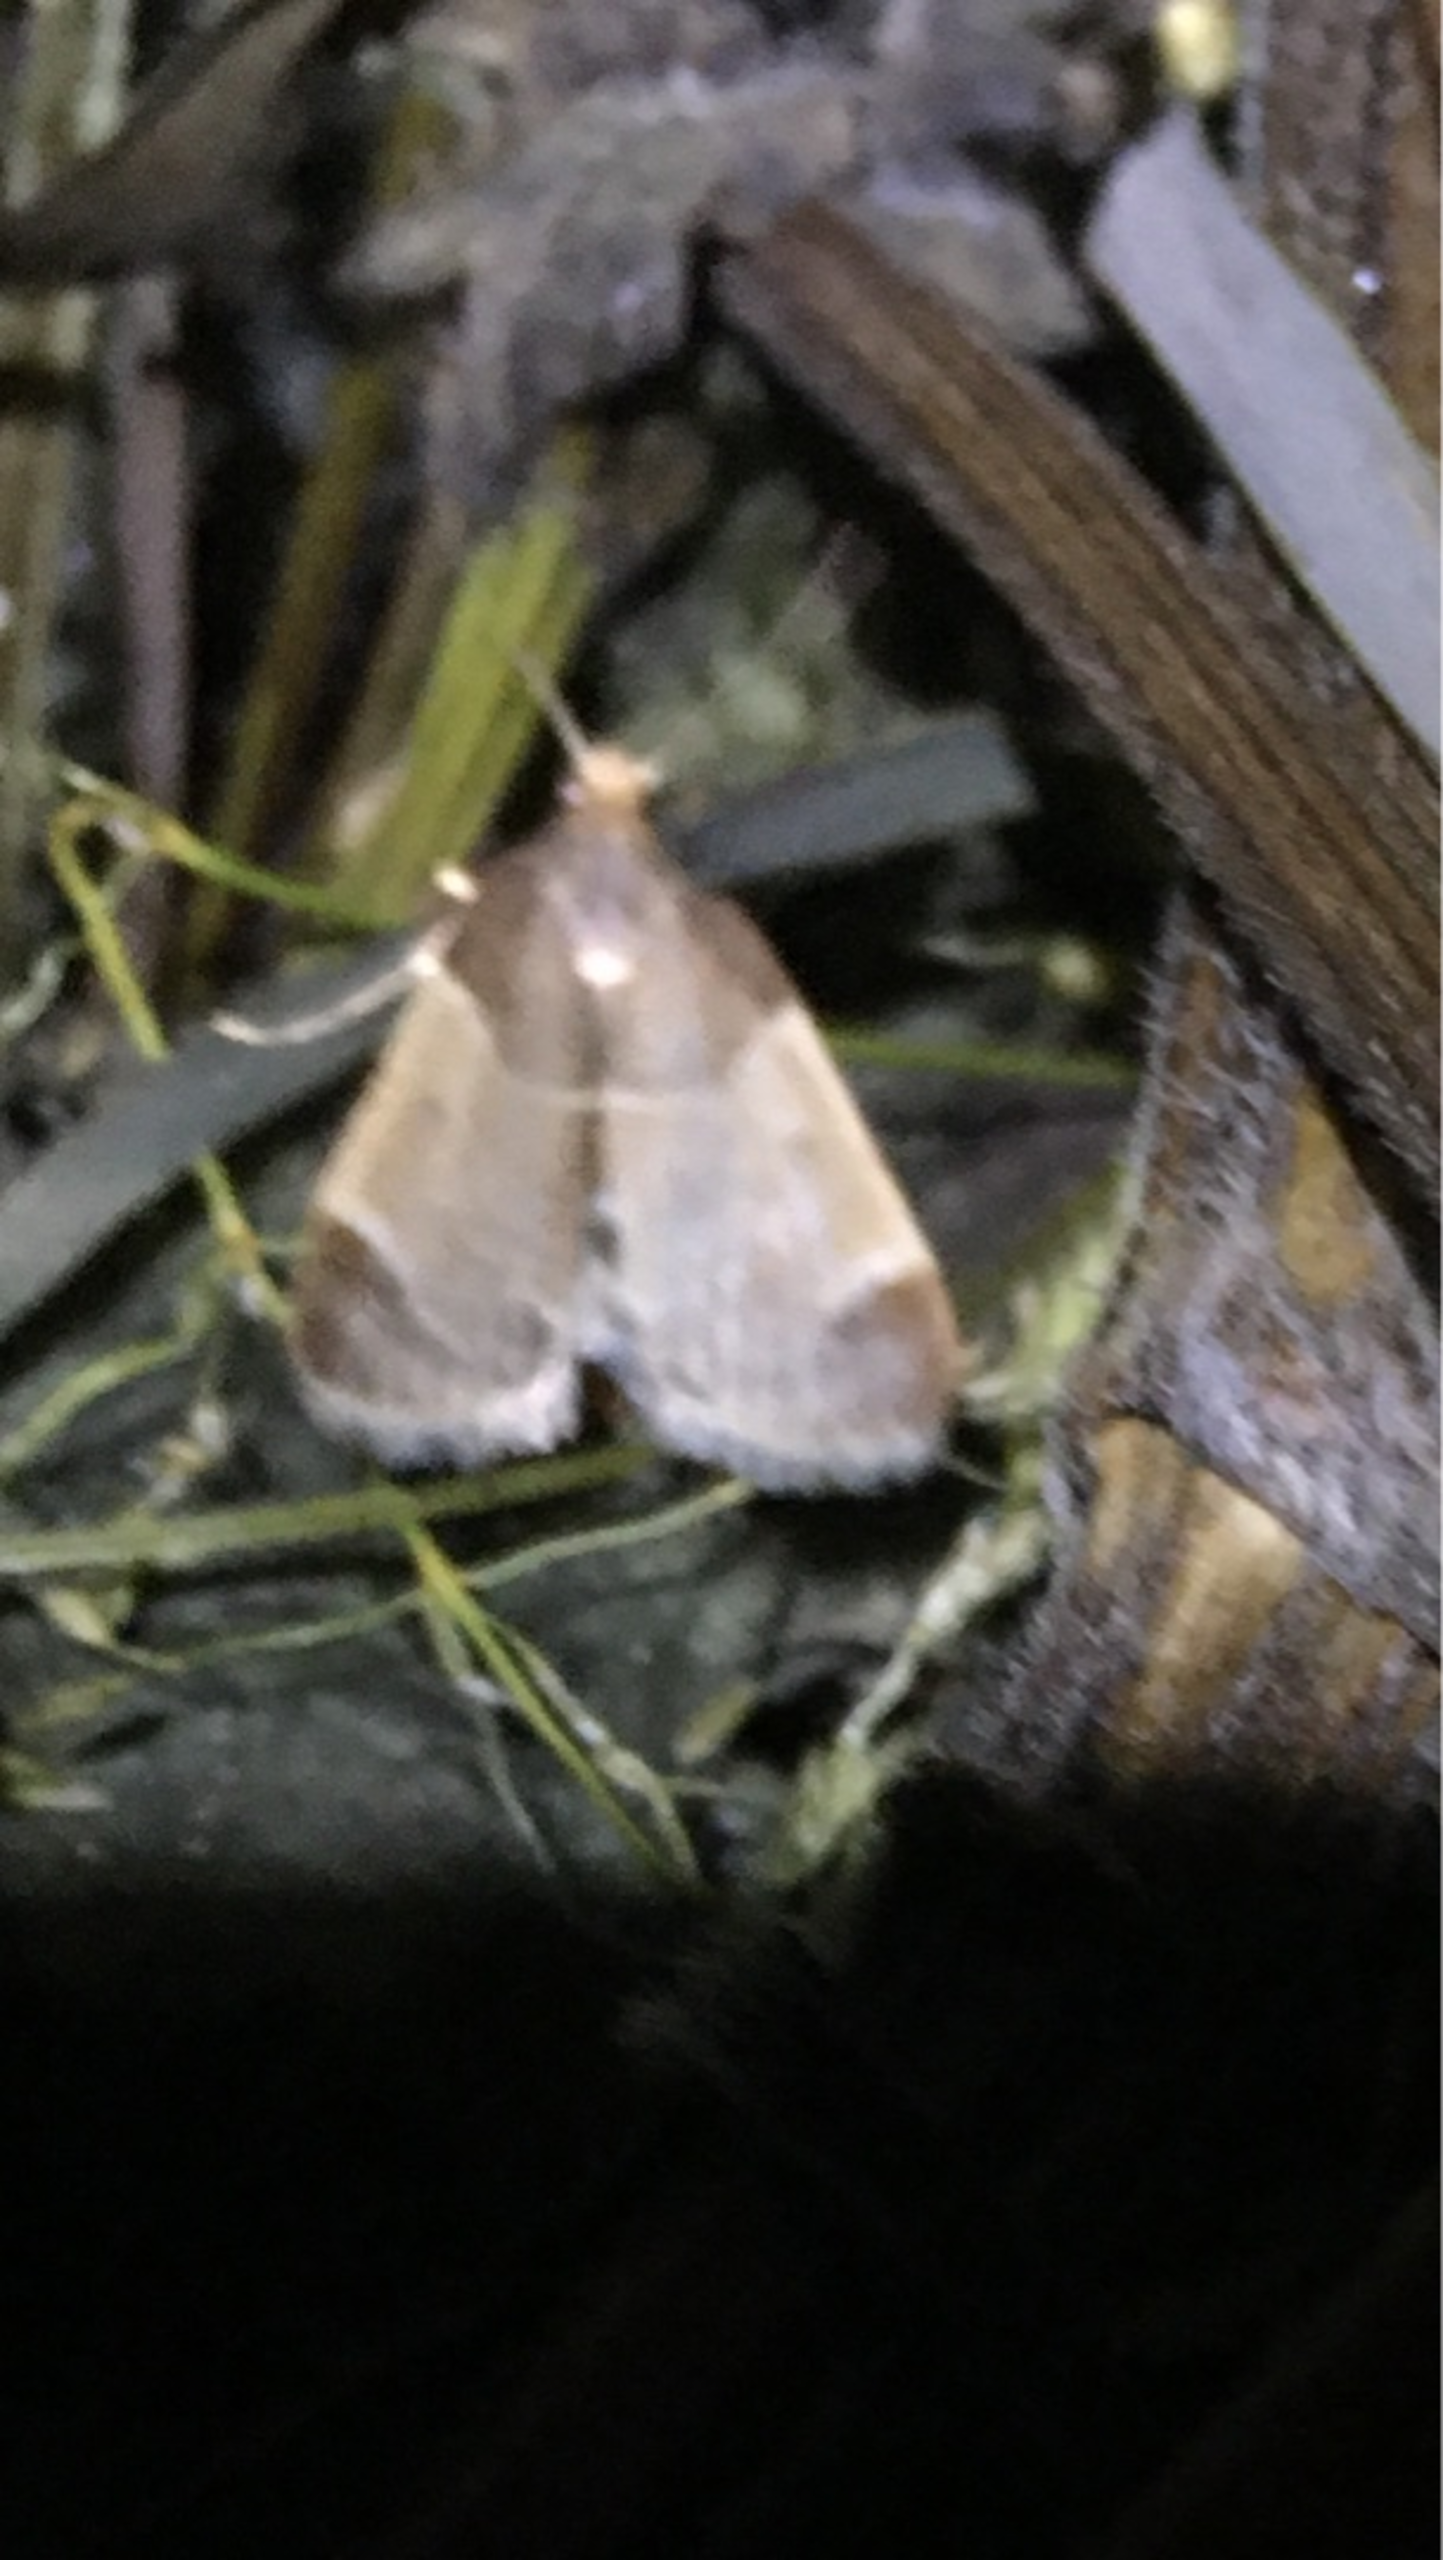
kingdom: Animalia
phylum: Arthropoda
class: Insecta
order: Lepidoptera
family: Pyralidae
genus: Pyralis
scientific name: Pyralis farinalis
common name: Stort melmøl
